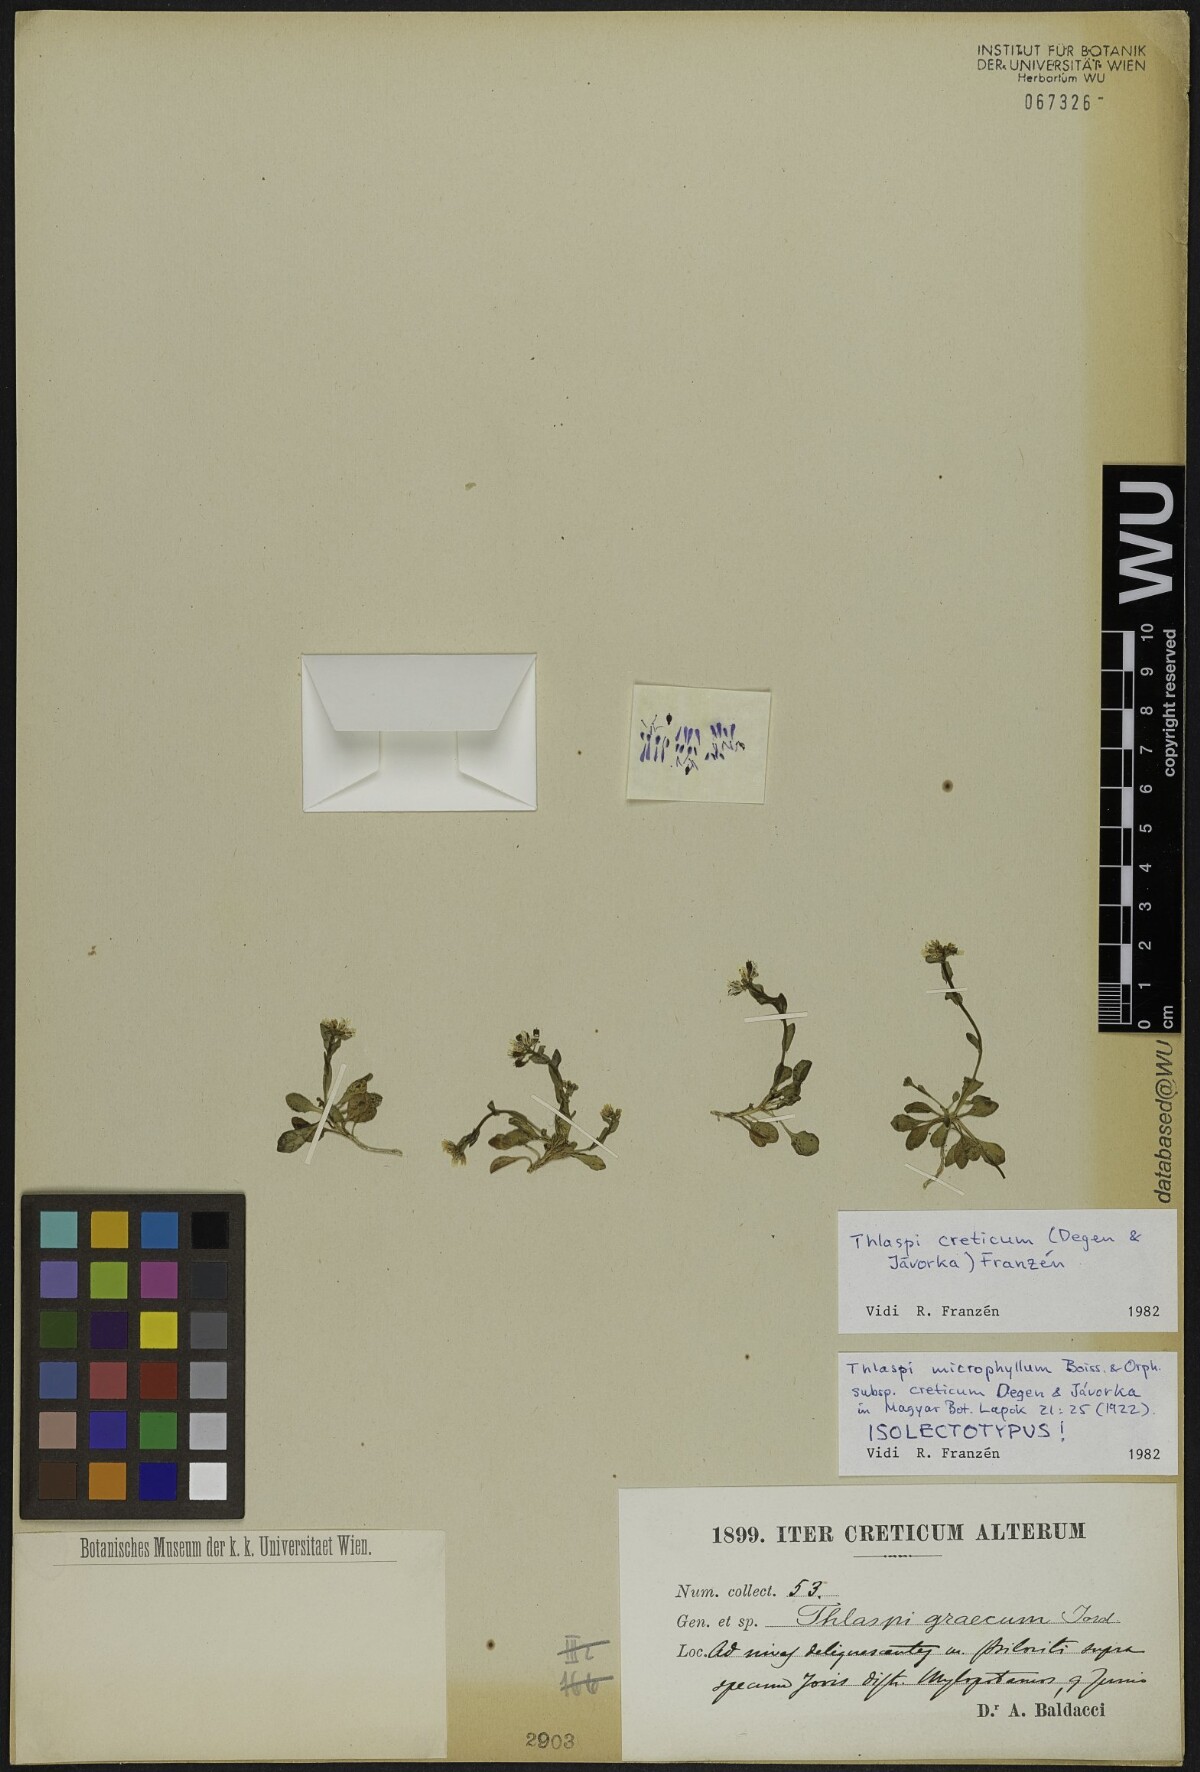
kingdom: Plantae
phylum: Tracheophyta
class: Magnoliopsida
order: Brassicales
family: Brassicaceae
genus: Noccaea
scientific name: Noccaea cretica
